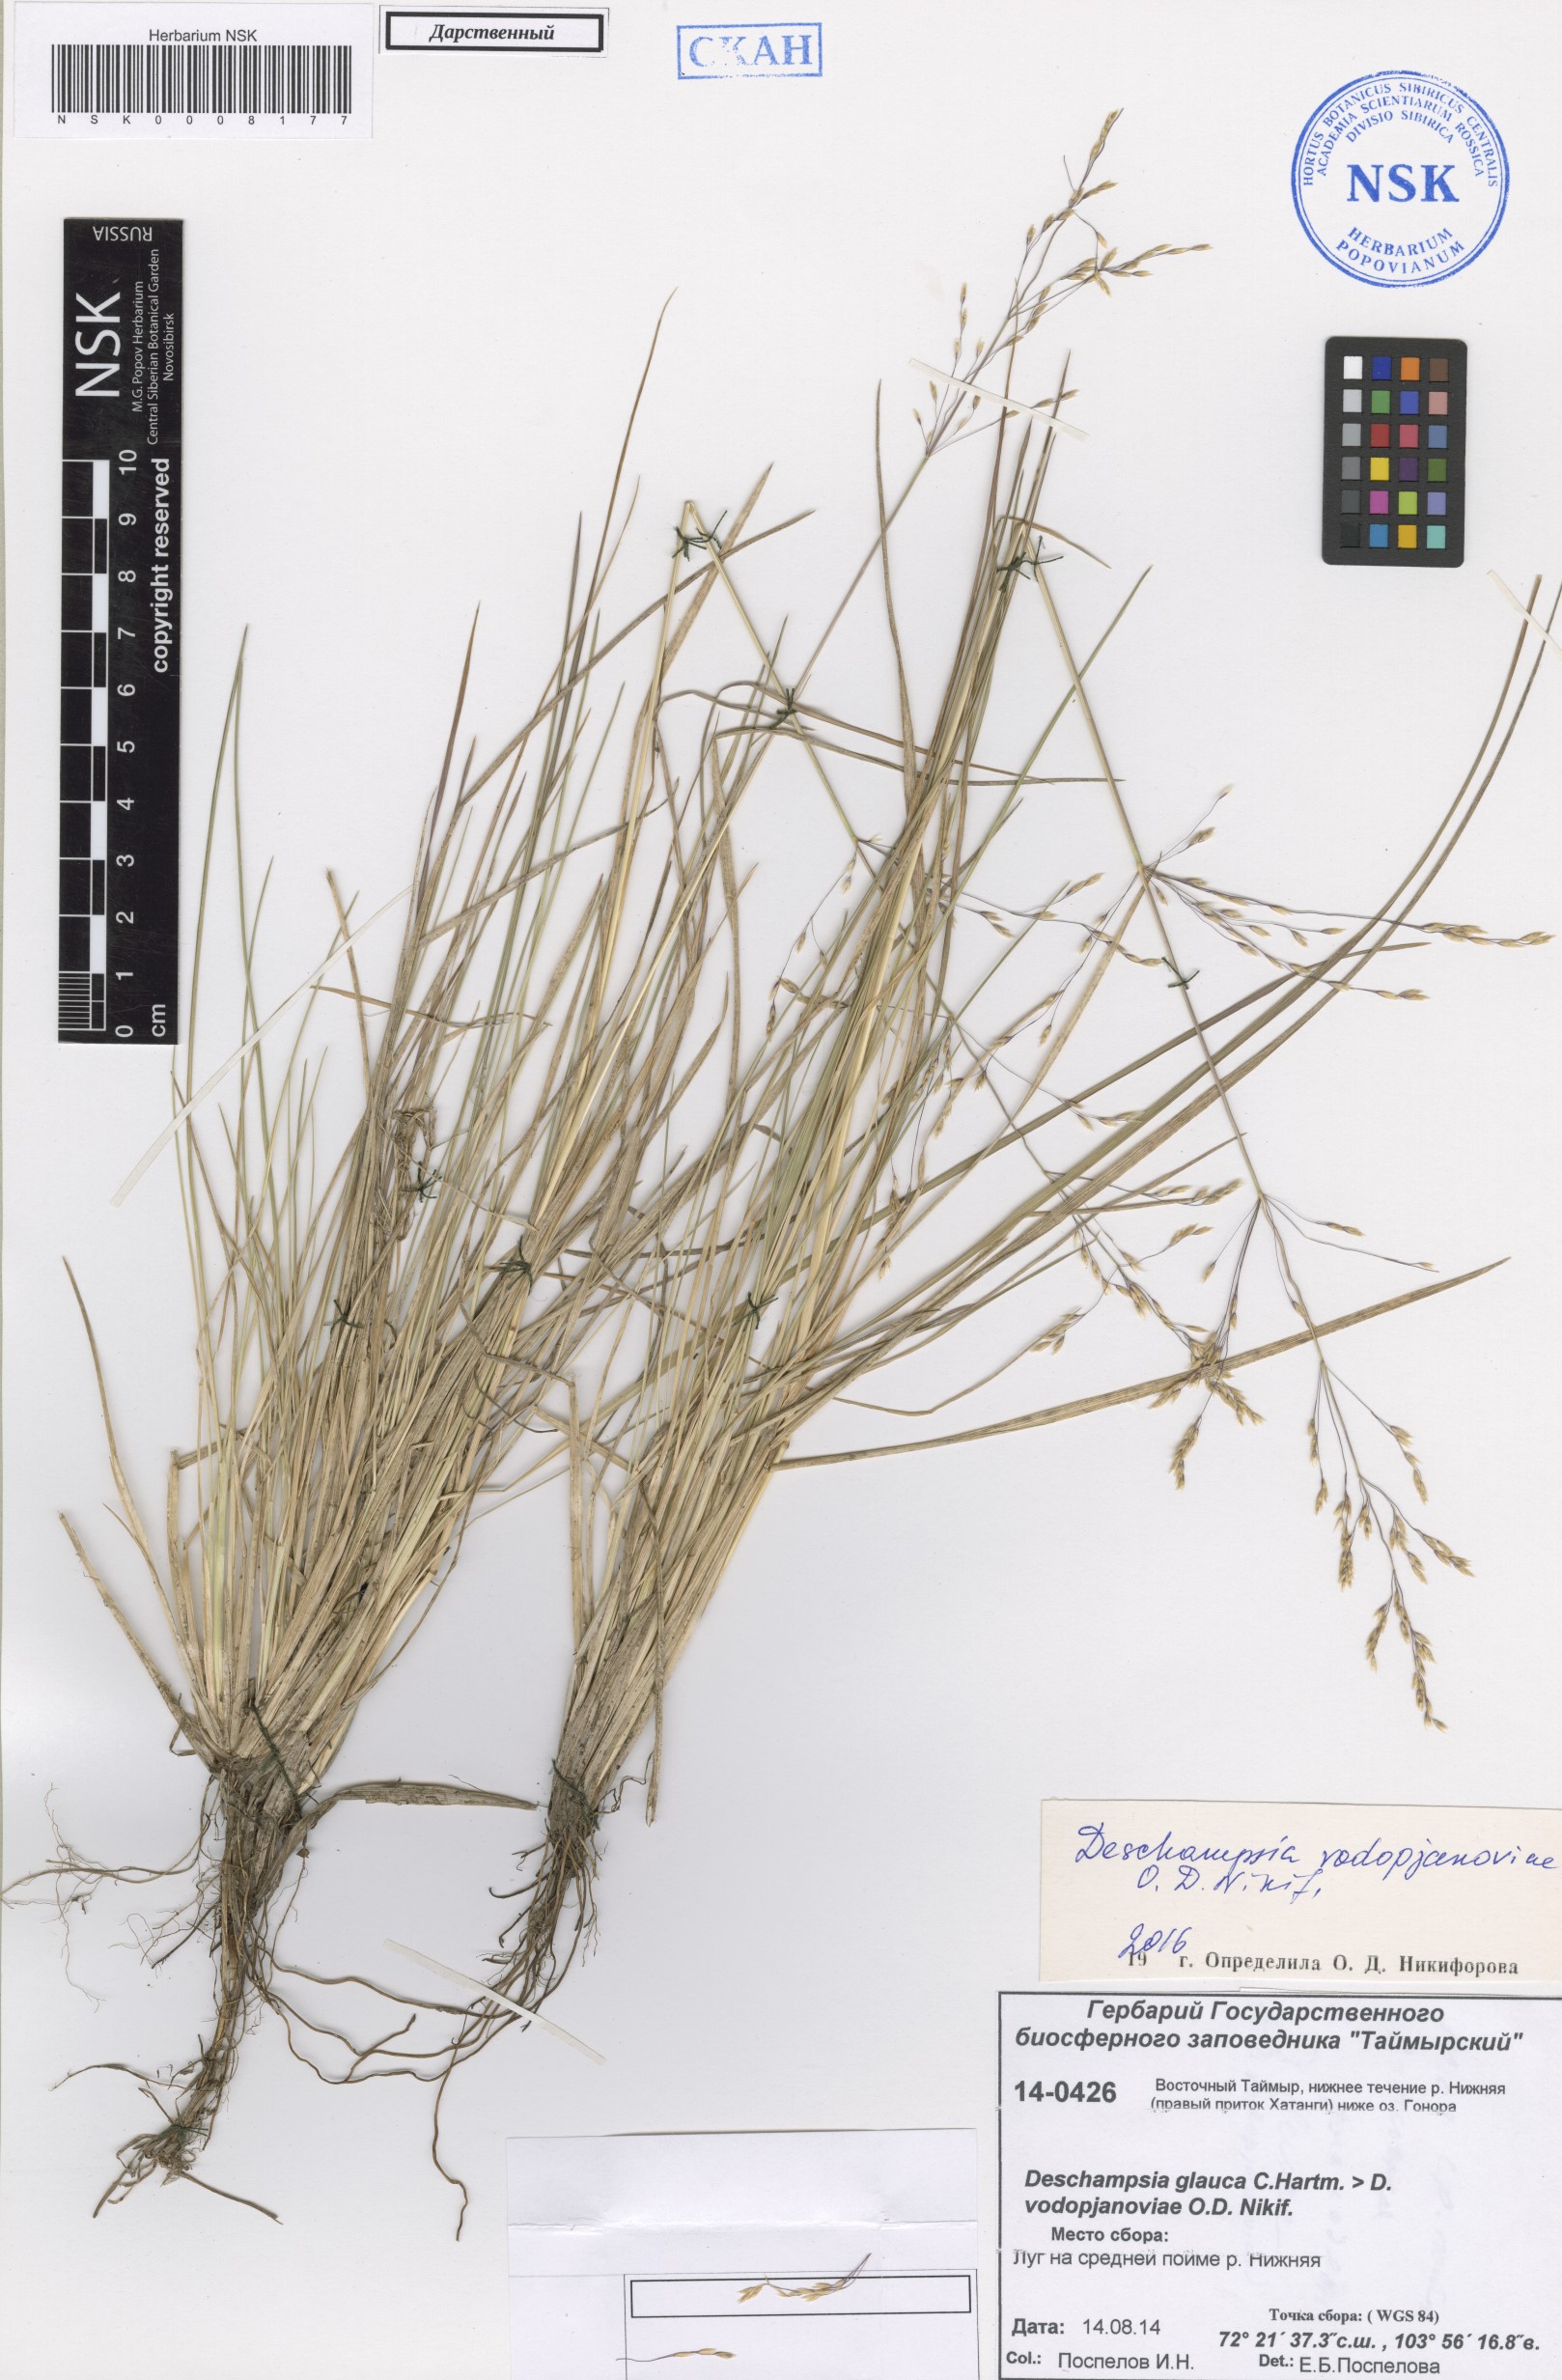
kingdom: Plantae
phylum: Tracheophyta
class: Liliopsida
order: Poales
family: Poaceae
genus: Deschampsia
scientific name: Deschampsia cespitosa
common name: Tufted hair-grass
